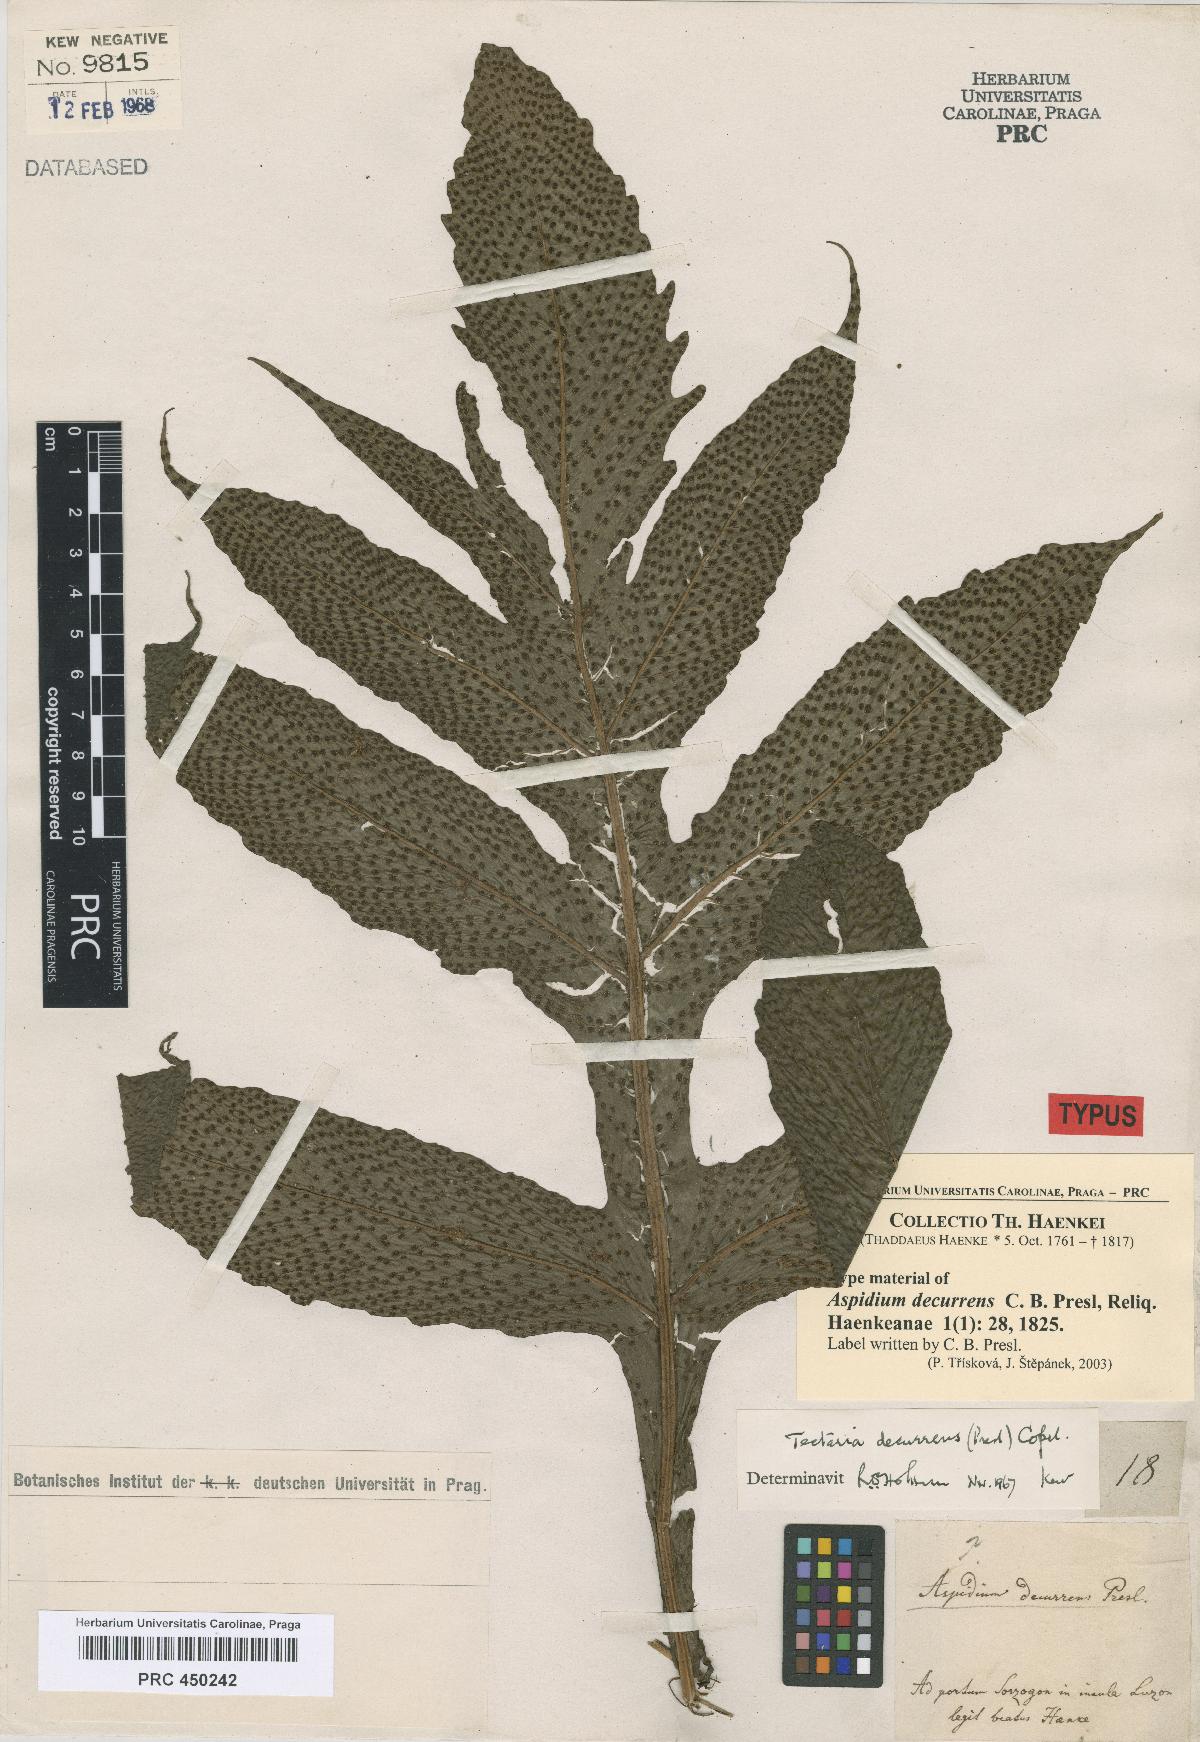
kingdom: Plantae
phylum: Tracheophyta
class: Polypodiopsida
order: Polypodiales
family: Tectariaceae
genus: Tectaria
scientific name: Tectaria decurrens
